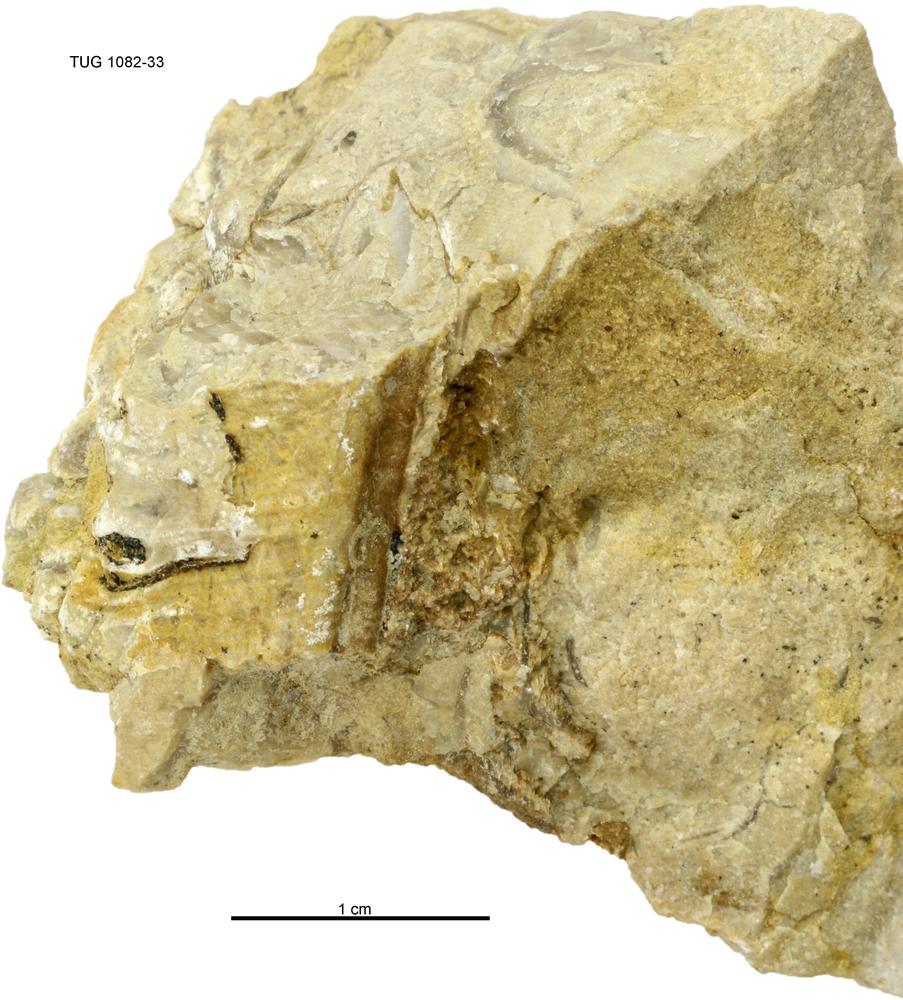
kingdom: Animalia
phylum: Cnidaria
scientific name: Cnidaria
